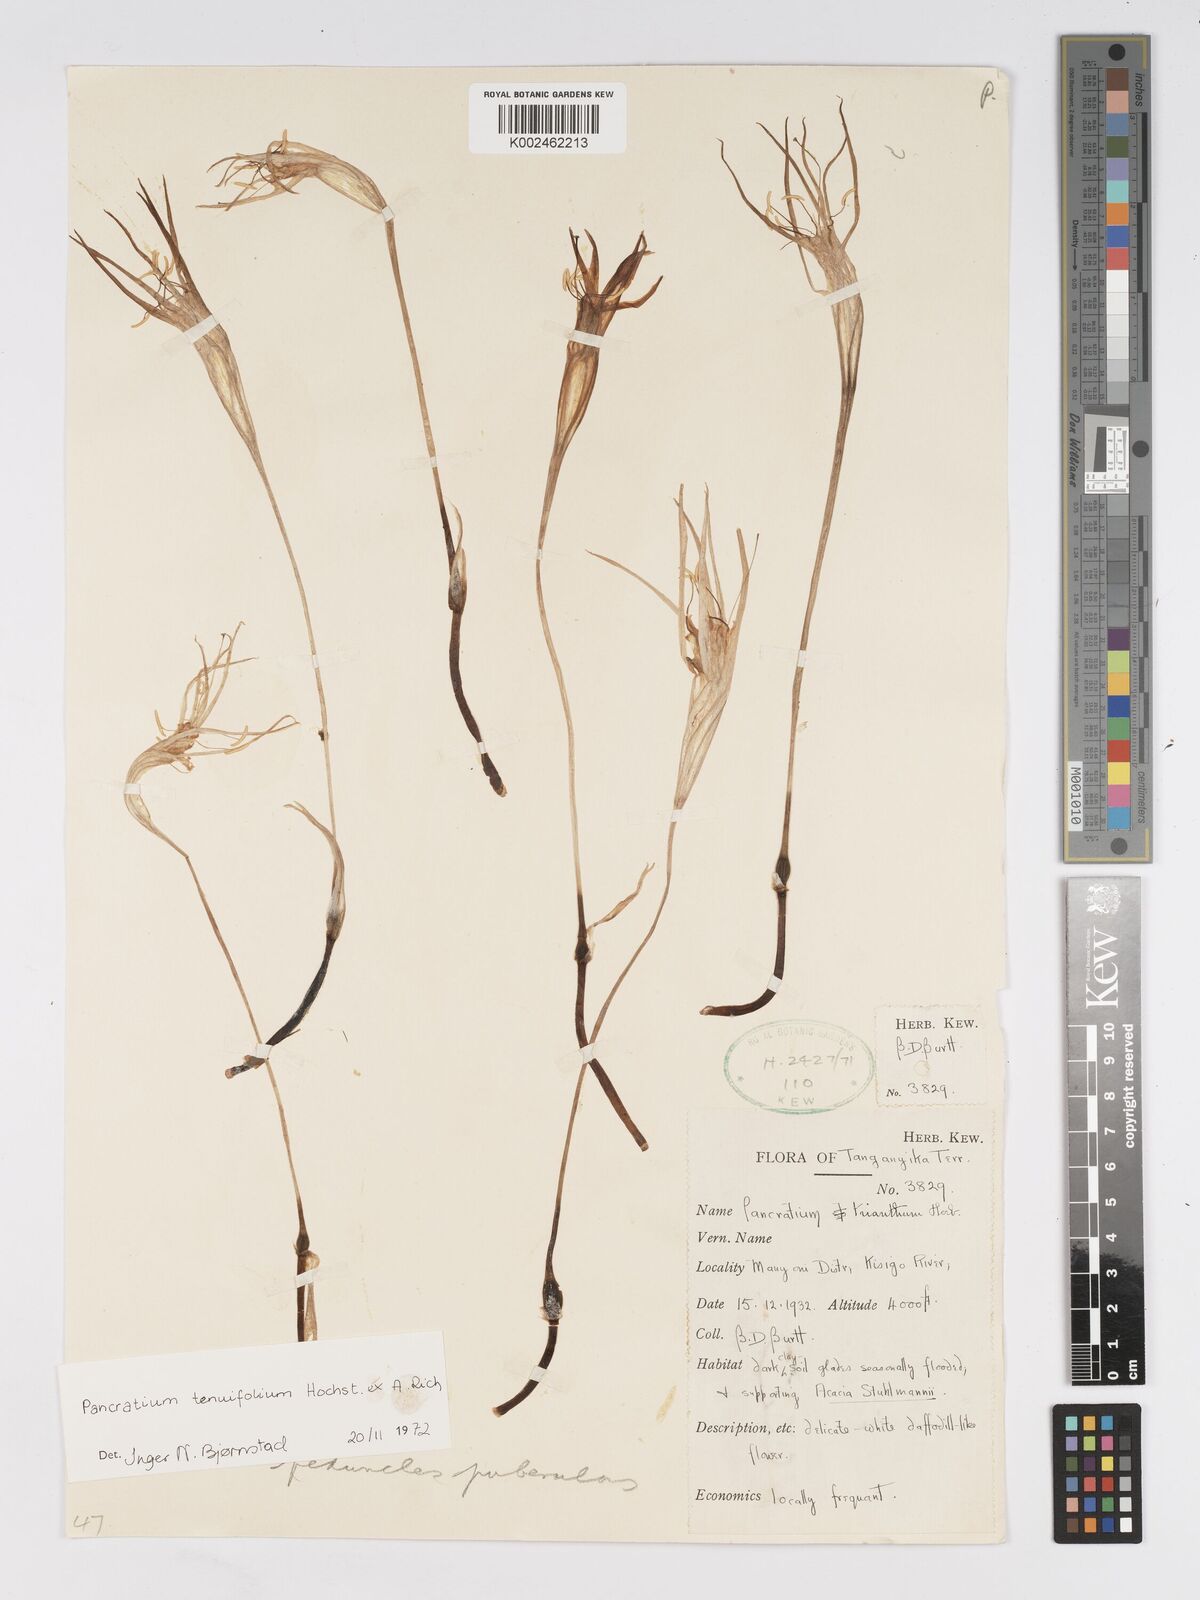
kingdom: Plantae
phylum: Tracheophyta
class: Liliopsida
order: Asparagales
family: Amaryllidaceae
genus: Pancratium
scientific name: Pancratium tenuifolium
